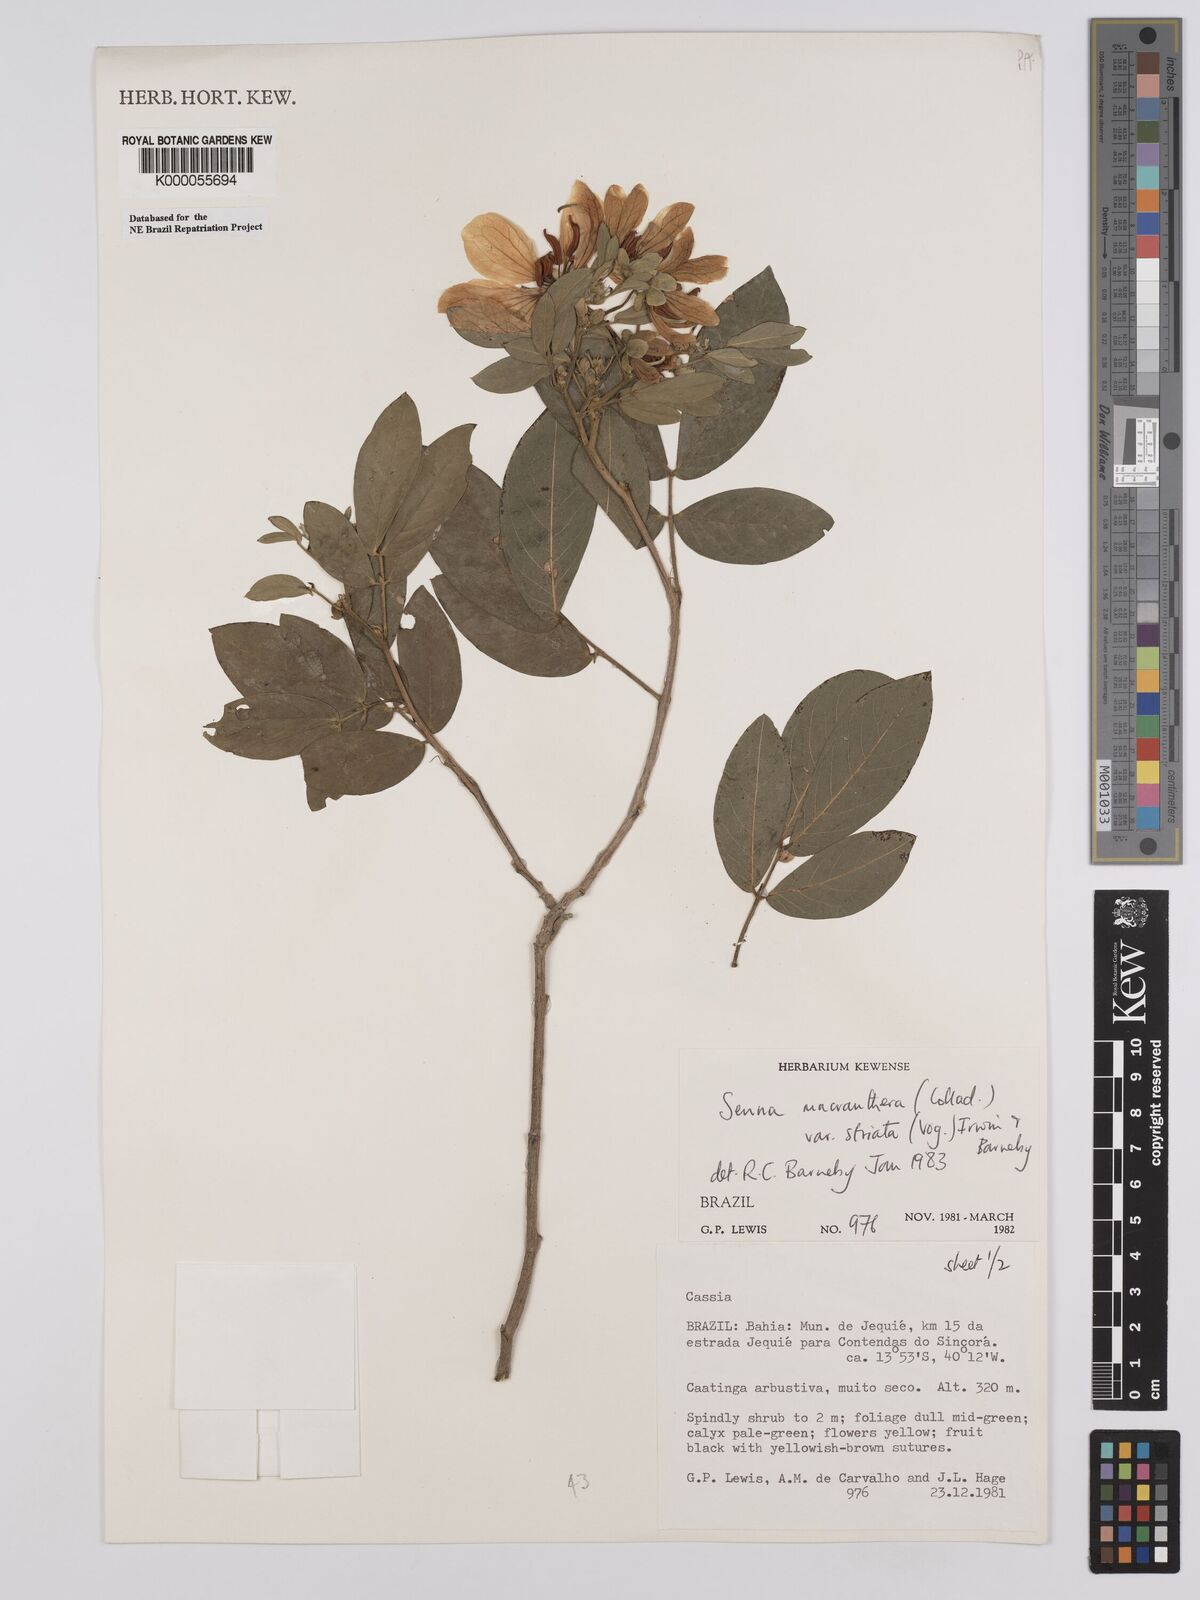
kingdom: Plantae
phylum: Tracheophyta
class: Magnoliopsida
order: Fabales
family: Fabaceae
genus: Senna
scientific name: Senna macranthera
